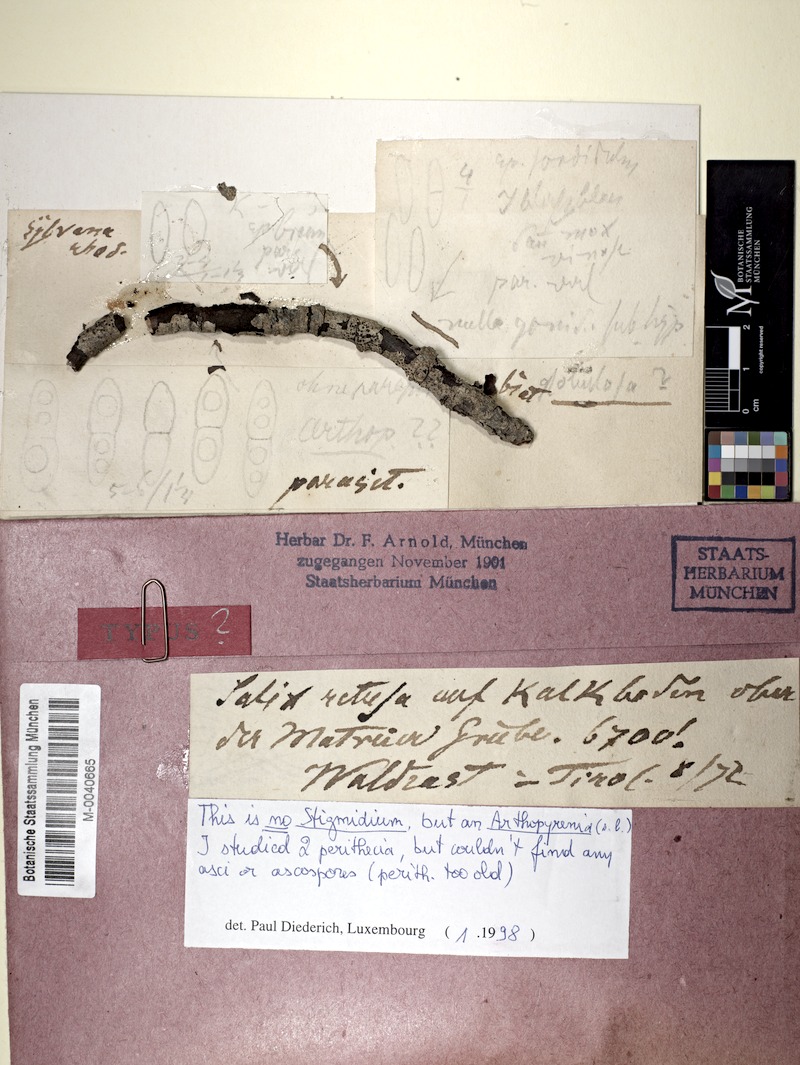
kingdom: Fungi
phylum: Ascomycota
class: Dothideomycetes
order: Mycosphaerellales
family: Mycosphaerellaceae
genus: Stigmidium
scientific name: Stigmidium punctillum
